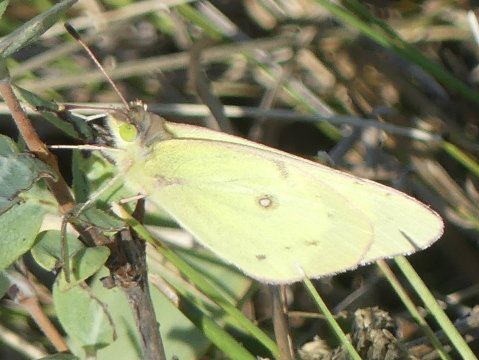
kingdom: Animalia
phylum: Arthropoda
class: Insecta
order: Lepidoptera
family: Pieridae
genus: Colias
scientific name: Colias philodice
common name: Clouded Sulphur
